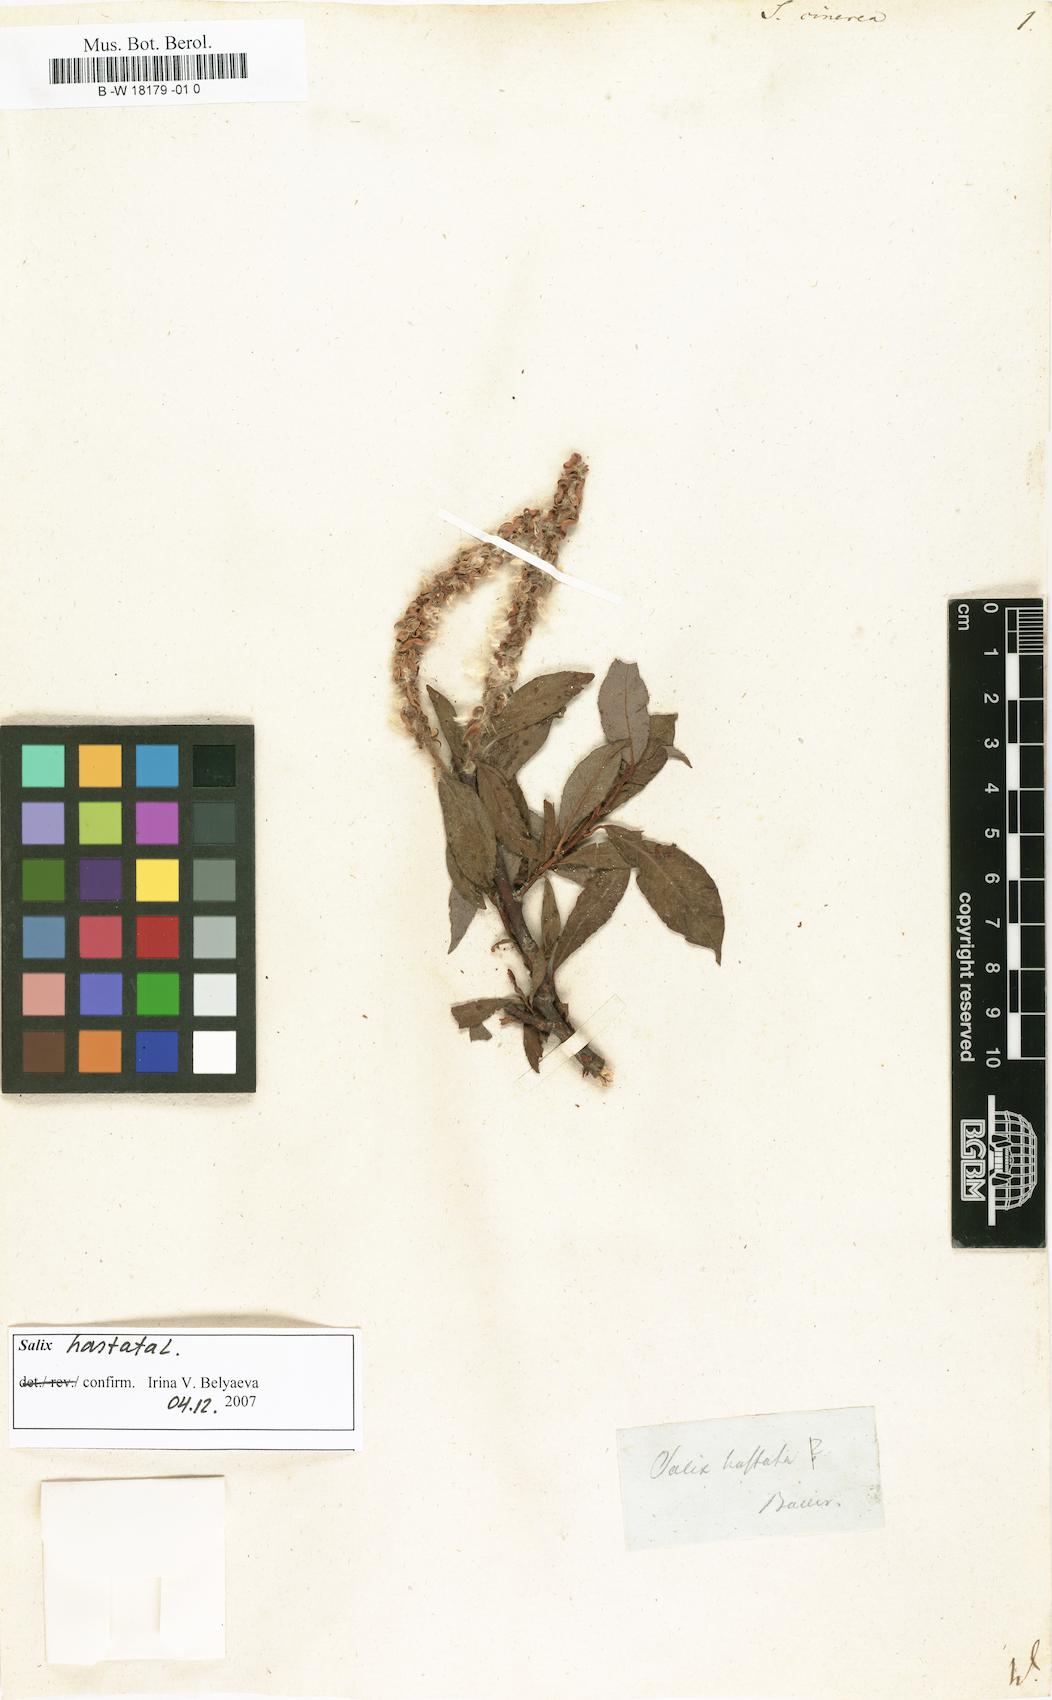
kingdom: Plantae
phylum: Tracheophyta
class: Magnoliopsida
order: Malpighiales
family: Salicaceae
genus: Salix
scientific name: Salix cinerea
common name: Common sallow
